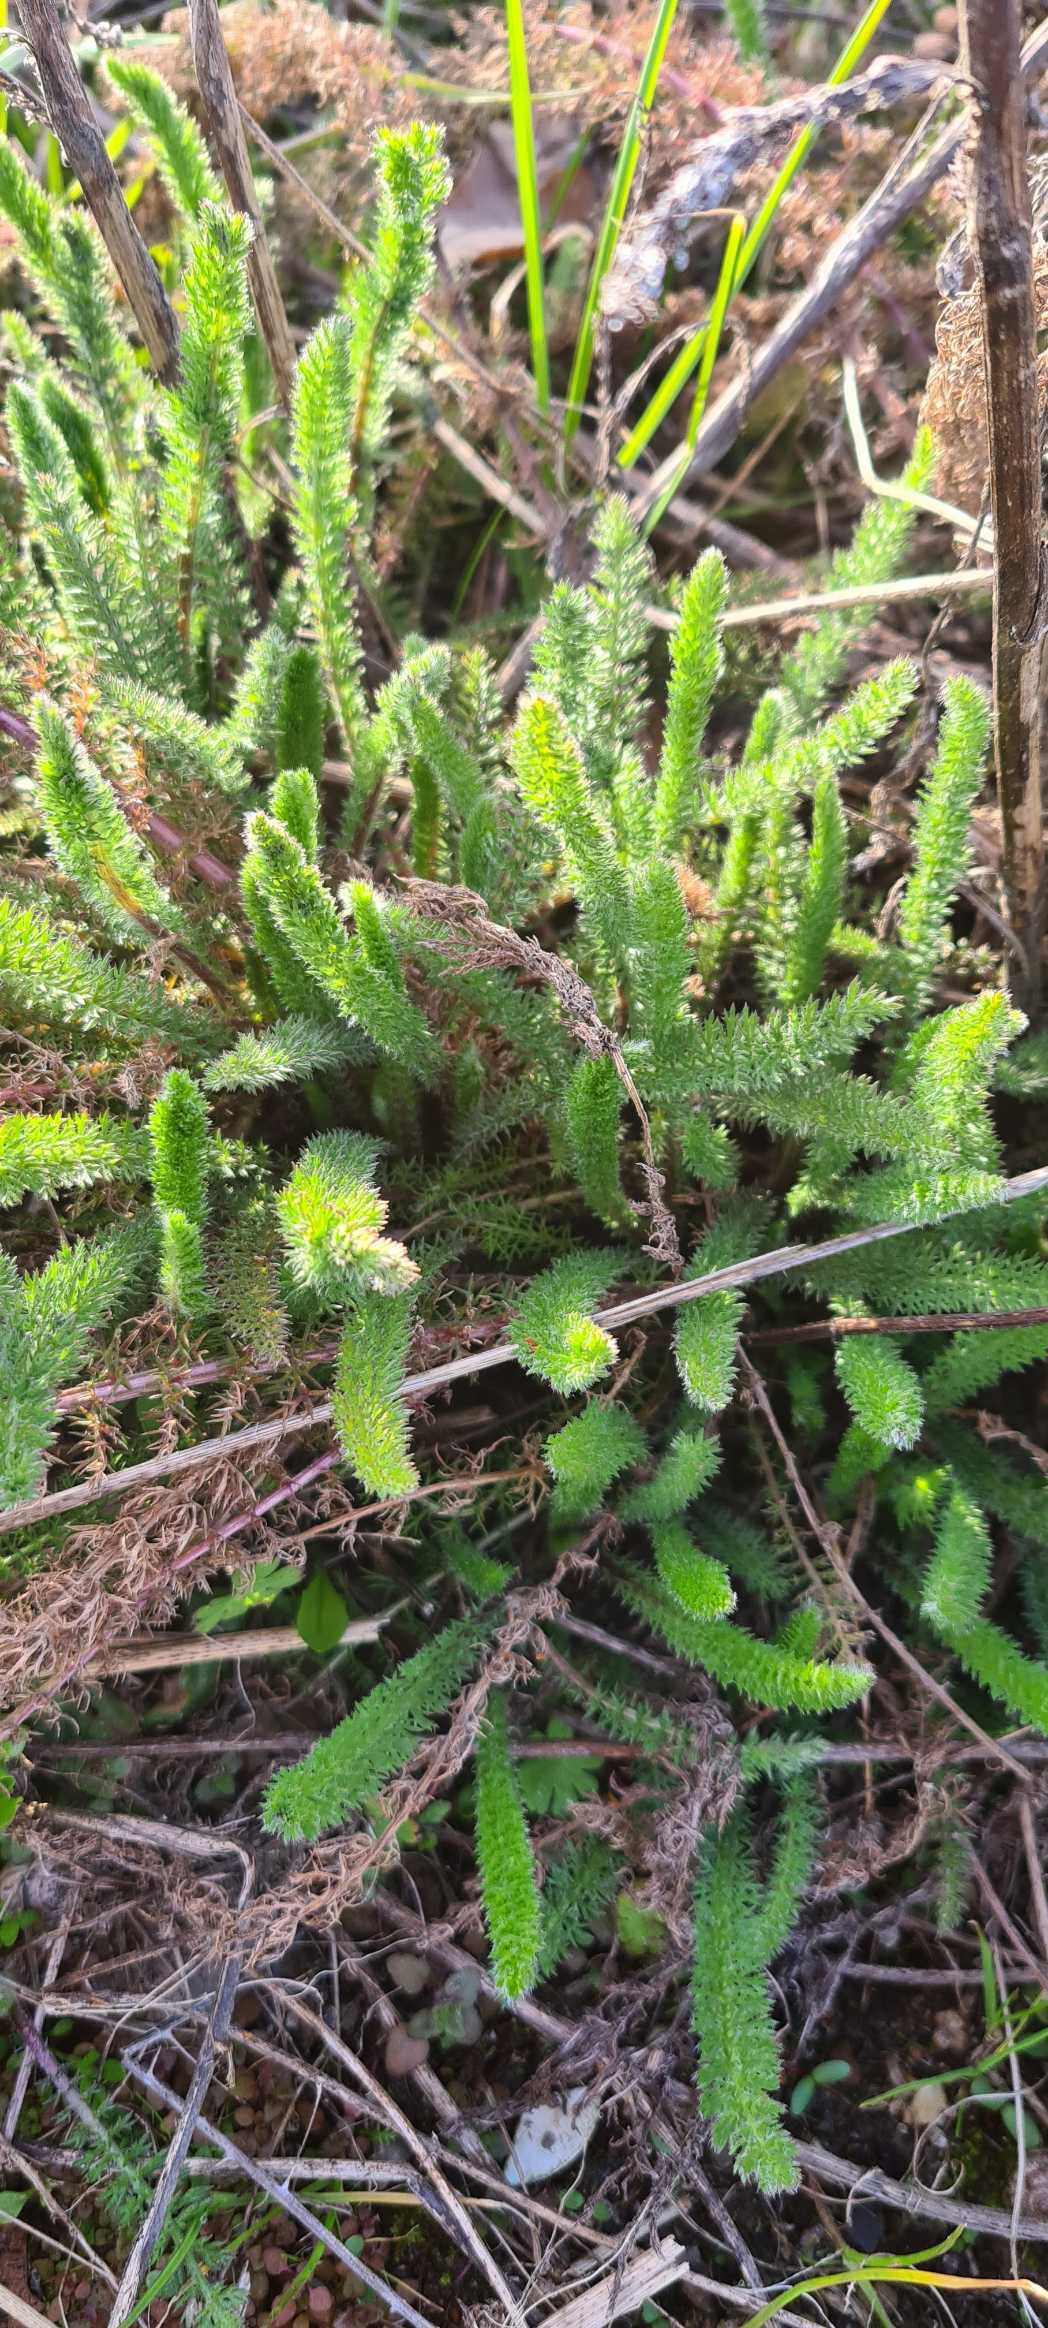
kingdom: Plantae
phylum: Tracheophyta
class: Magnoliopsida
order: Asterales
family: Asteraceae
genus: Achillea
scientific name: Achillea millefolium
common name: Almindelig røllike
